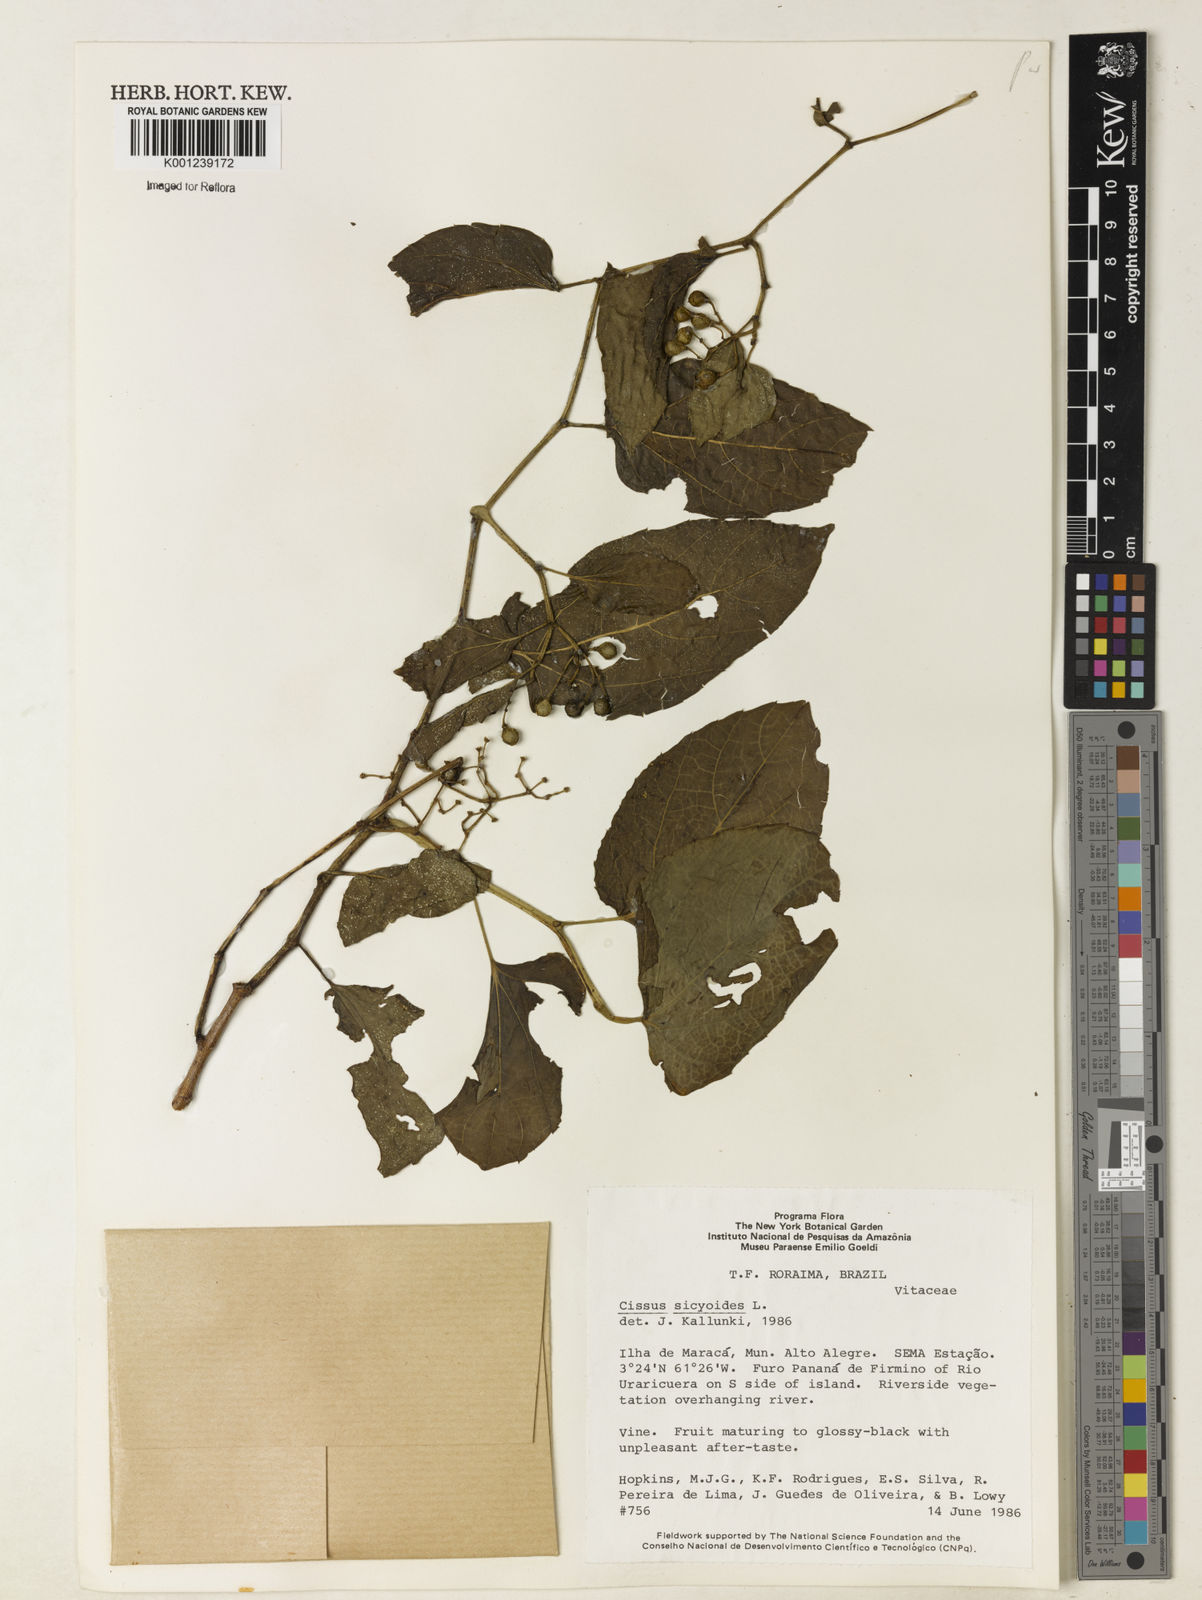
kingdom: Plantae
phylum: Tracheophyta
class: Magnoliopsida
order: Vitales
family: Vitaceae
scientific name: Vitaceae
